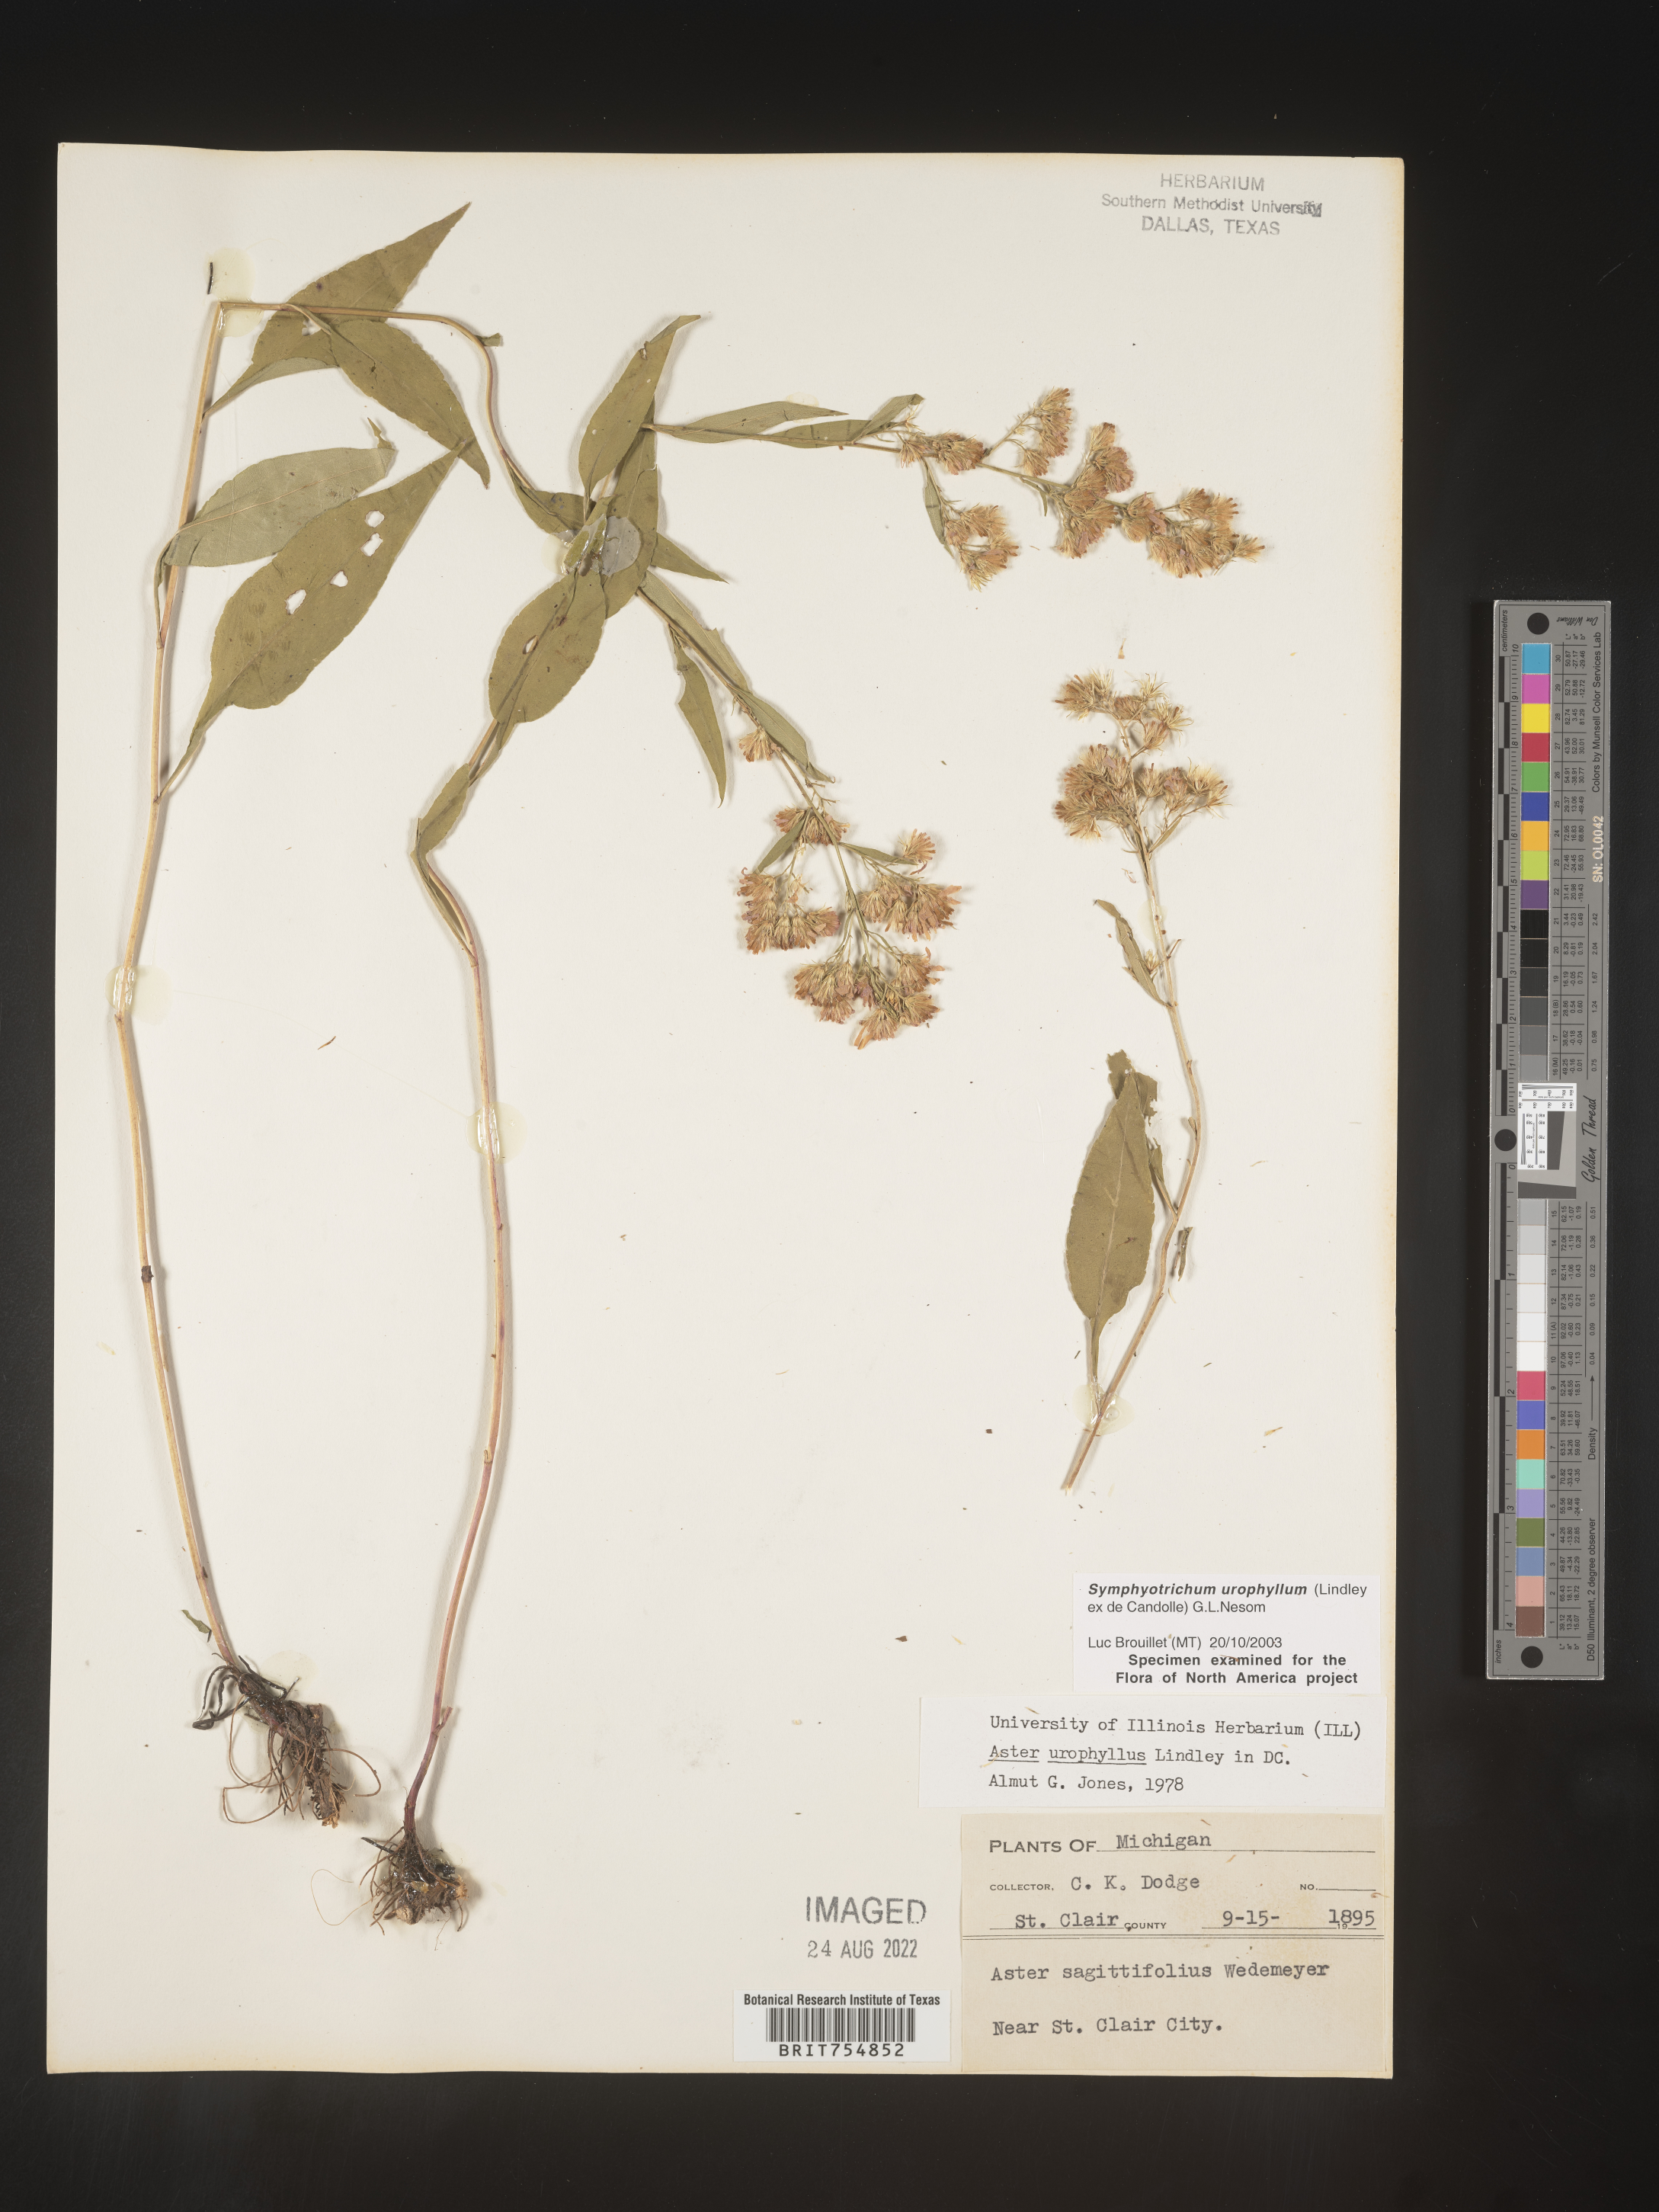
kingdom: Plantae
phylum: Tracheophyta
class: Magnoliopsida
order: Asterales
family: Asteraceae
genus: Symphyotrichum
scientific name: Symphyotrichum urophyllum
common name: Arrow-leaved aster
